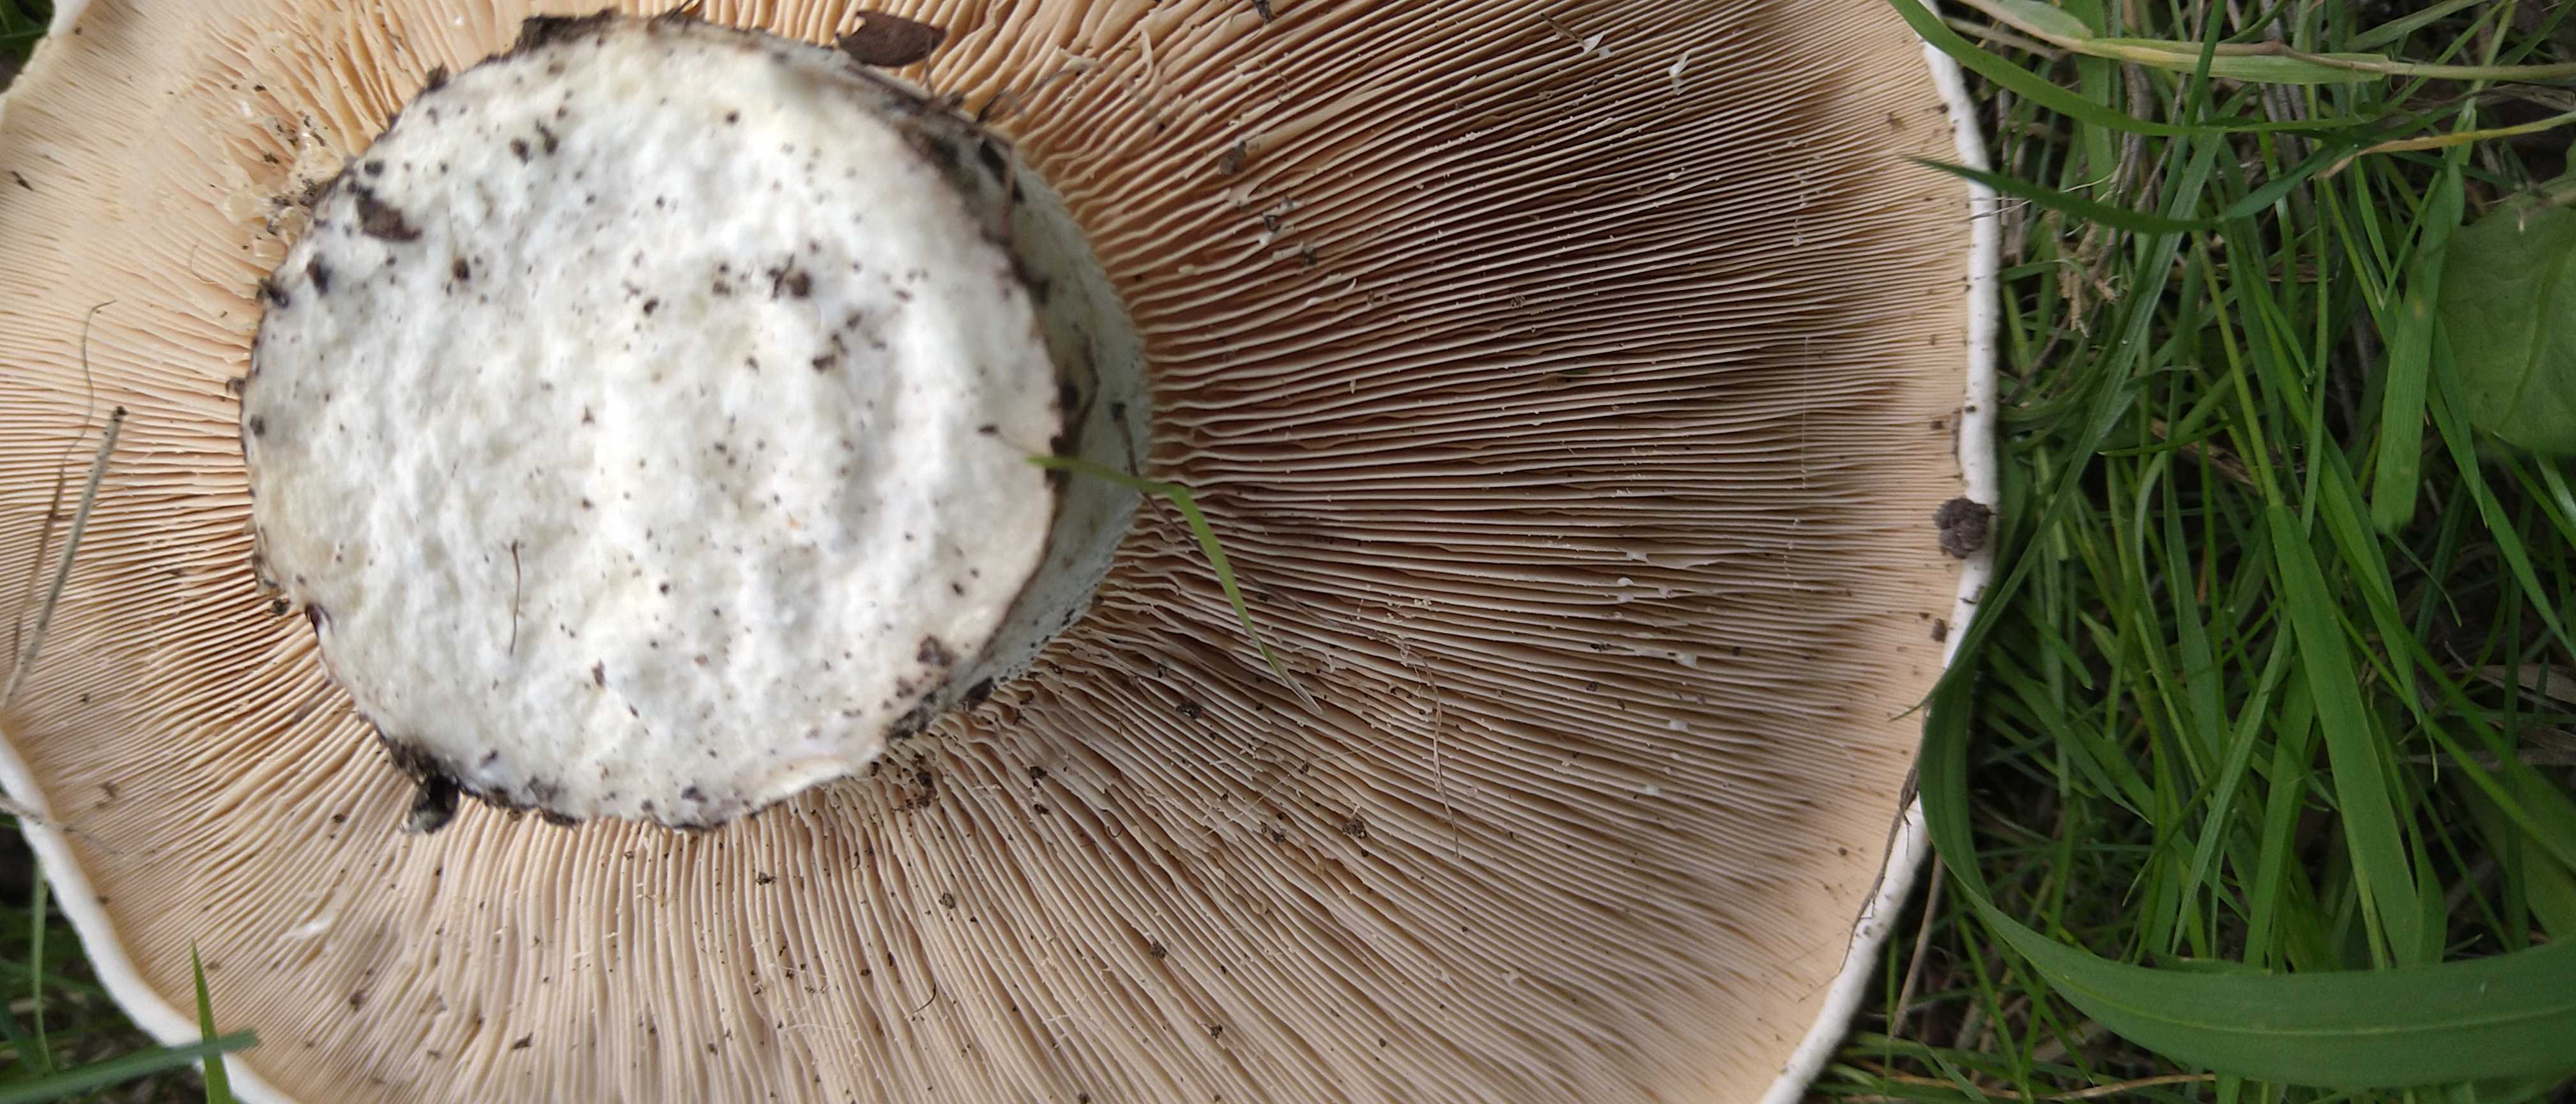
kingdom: Fungi
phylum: Basidiomycota
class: Agaricomycetes
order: Russulales
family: Russulaceae
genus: Lactarius
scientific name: Lactarius controversus
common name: rosabladet mælkehat
